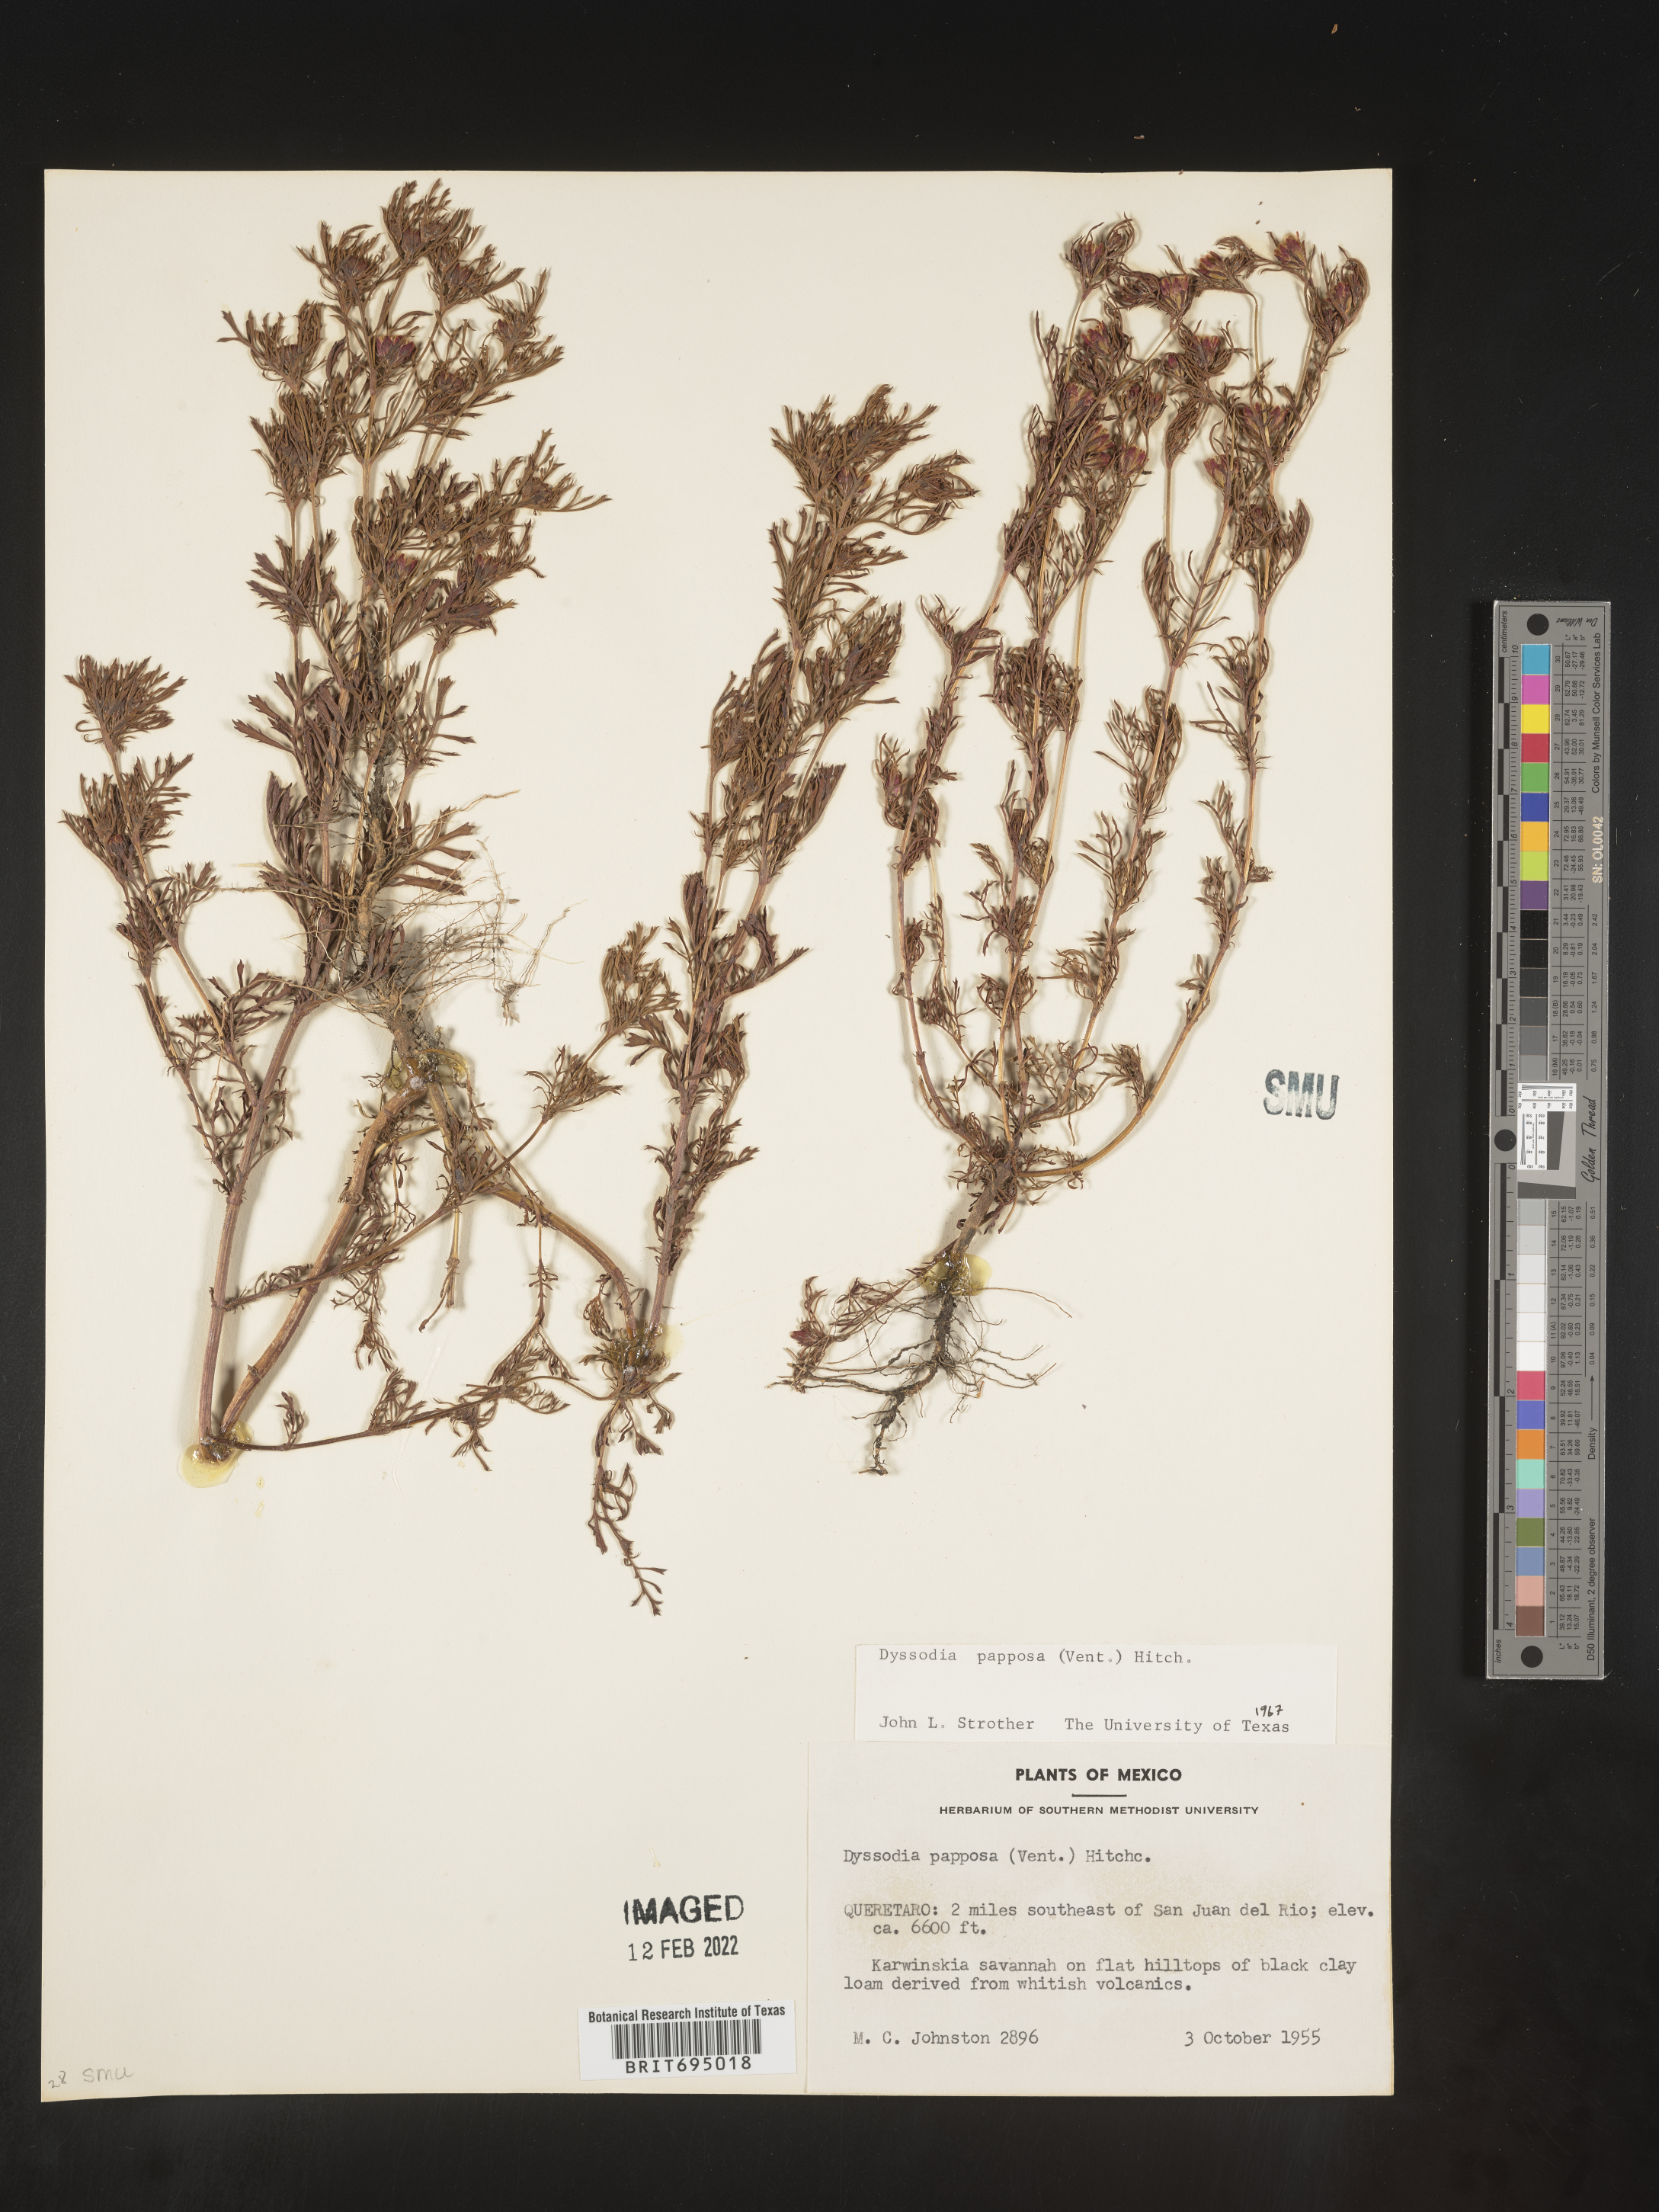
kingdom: Plantae
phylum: Tracheophyta
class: Magnoliopsida
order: Asterales
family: Asteraceae
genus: Dyssodia
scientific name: Dyssodia papposa
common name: Dogweed
